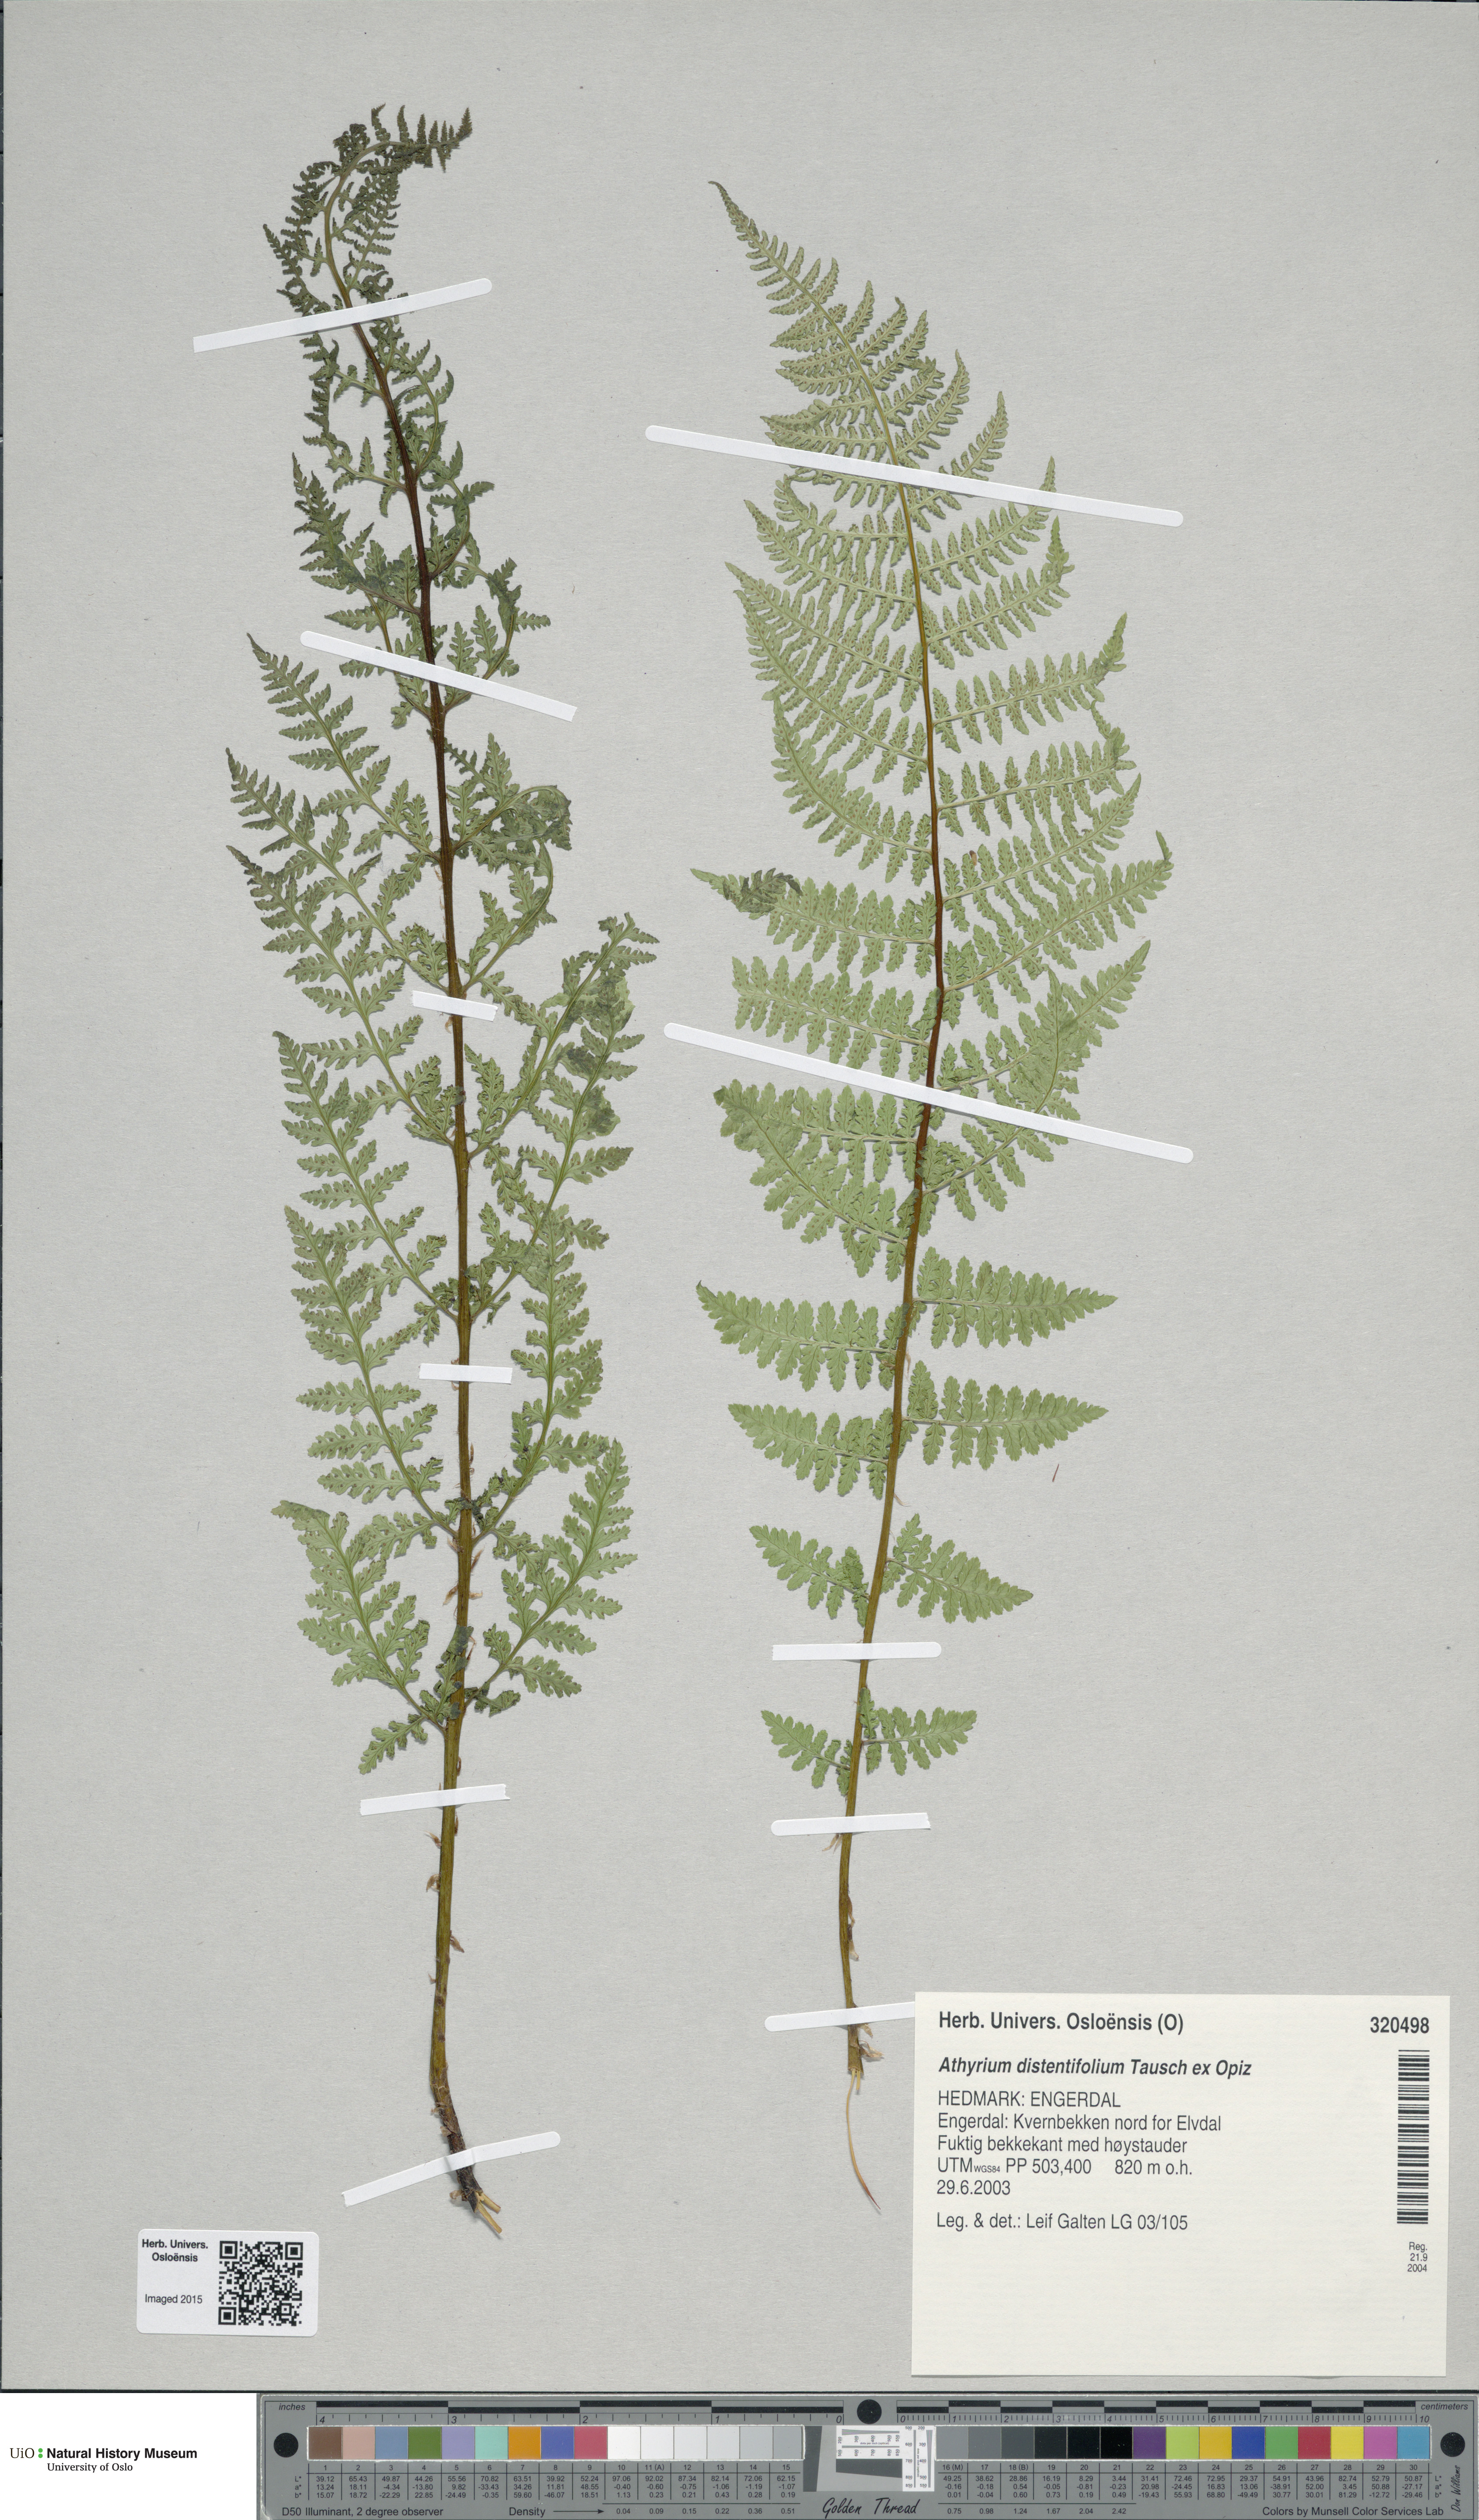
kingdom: Plantae
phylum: Tracheophyta
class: Polypodiopsida
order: Polypodiales
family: Athyriaceae
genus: Pseudathyrium
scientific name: Pseudathyrium alpestre
